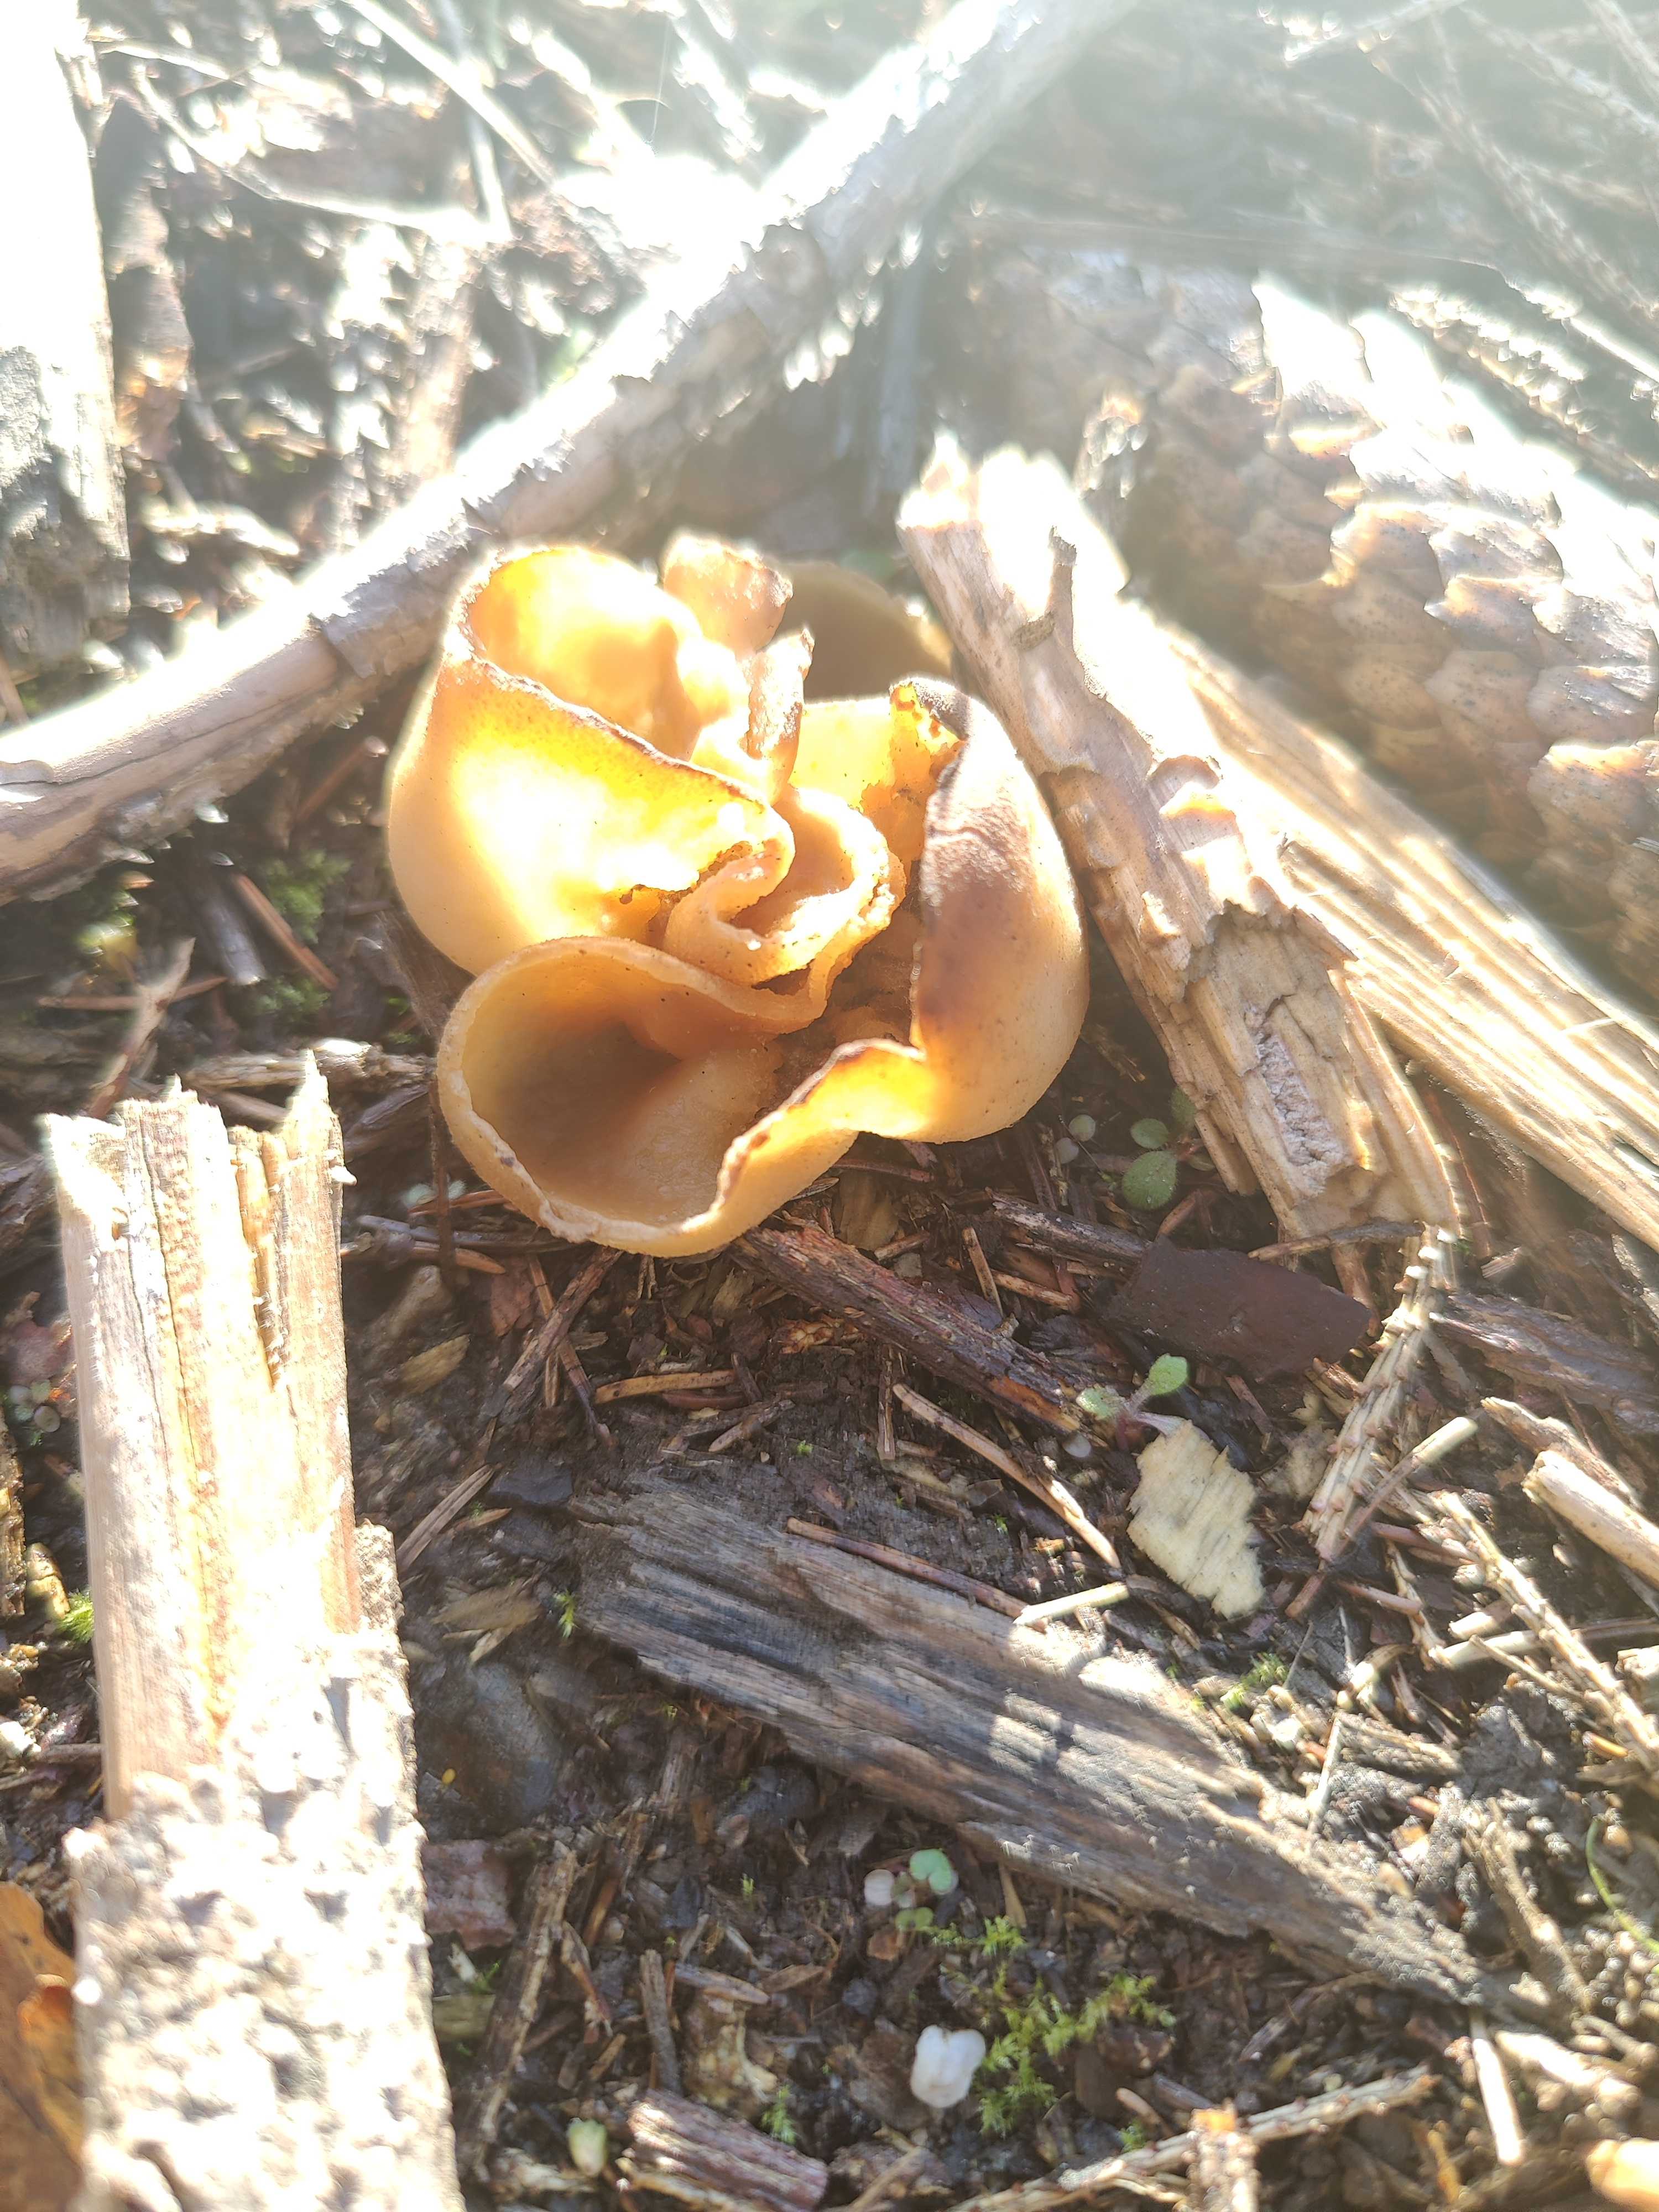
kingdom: Fungi
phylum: Ascomycota
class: Pezizomycetes
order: Pezizales
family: Pezizaceae
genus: Peziza
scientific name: Peziza
